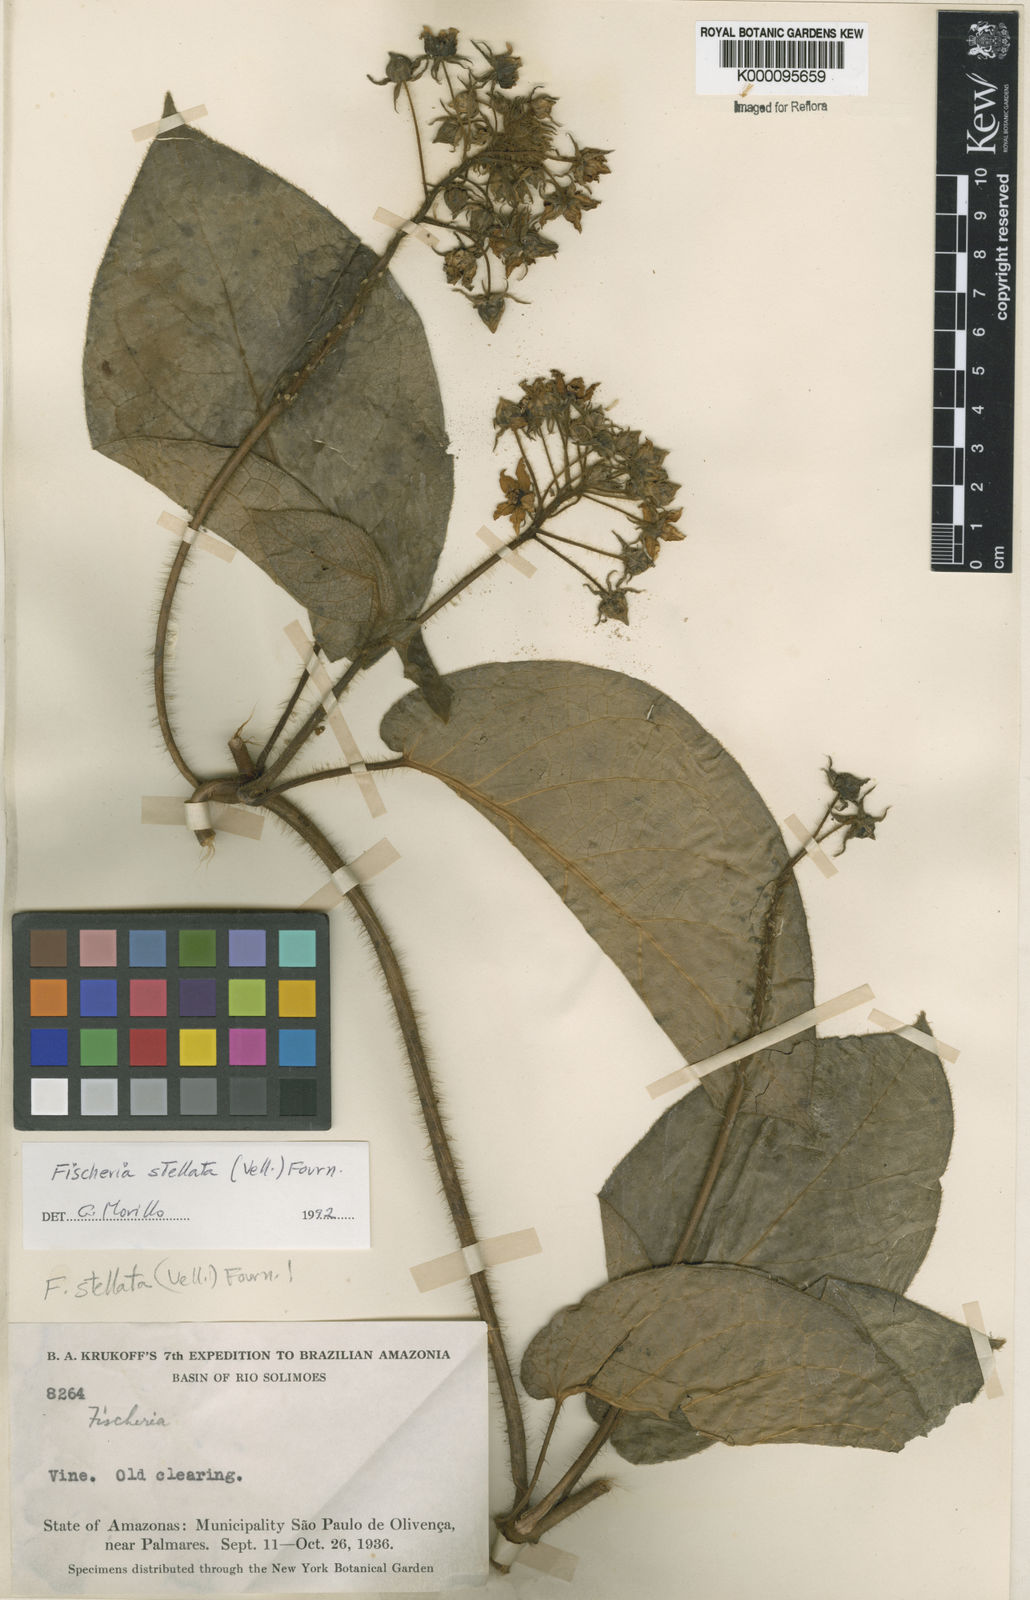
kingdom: Plantae
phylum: Tracheophyta
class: Magnoliopsida
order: Gentianales
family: Apocynaceae
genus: Fischeria
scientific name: Fischeria stellata
